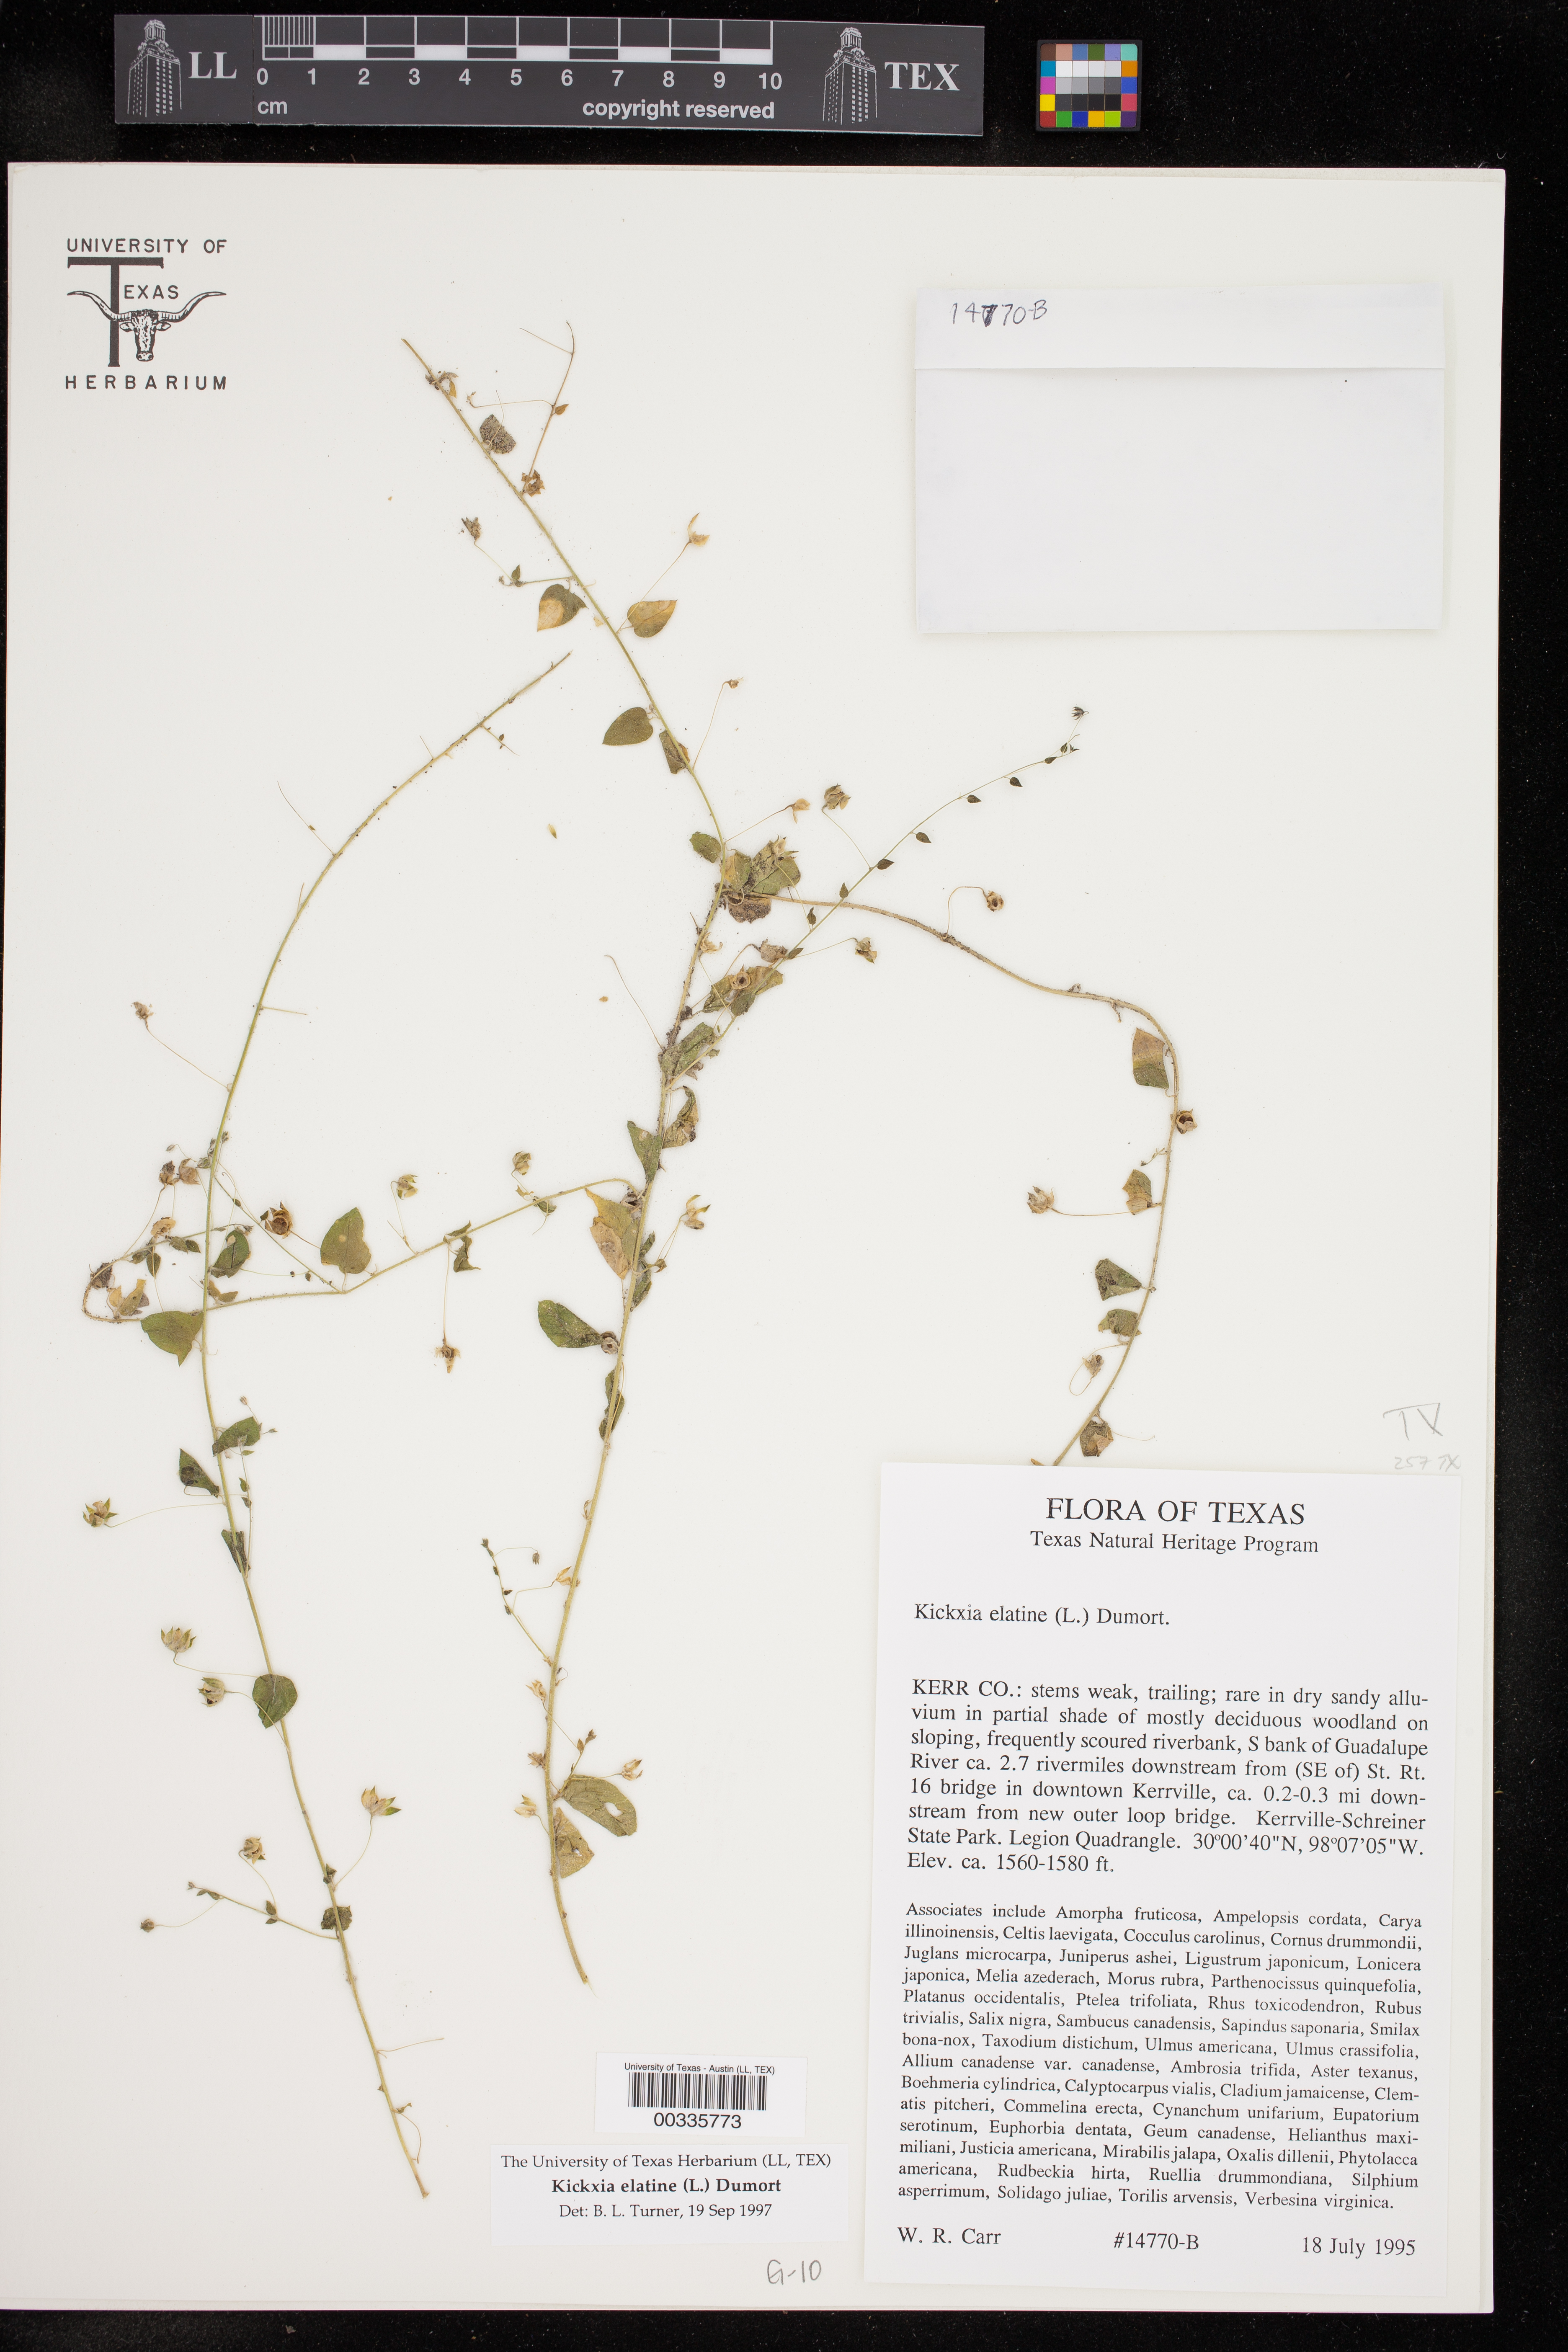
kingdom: Plantae
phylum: Tracheophyta
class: Magnoliopsida
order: Lamiales
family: Plantaginaceae
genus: Kickxia
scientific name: Kickxia elatine
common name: Sharp-leaved fluellen
